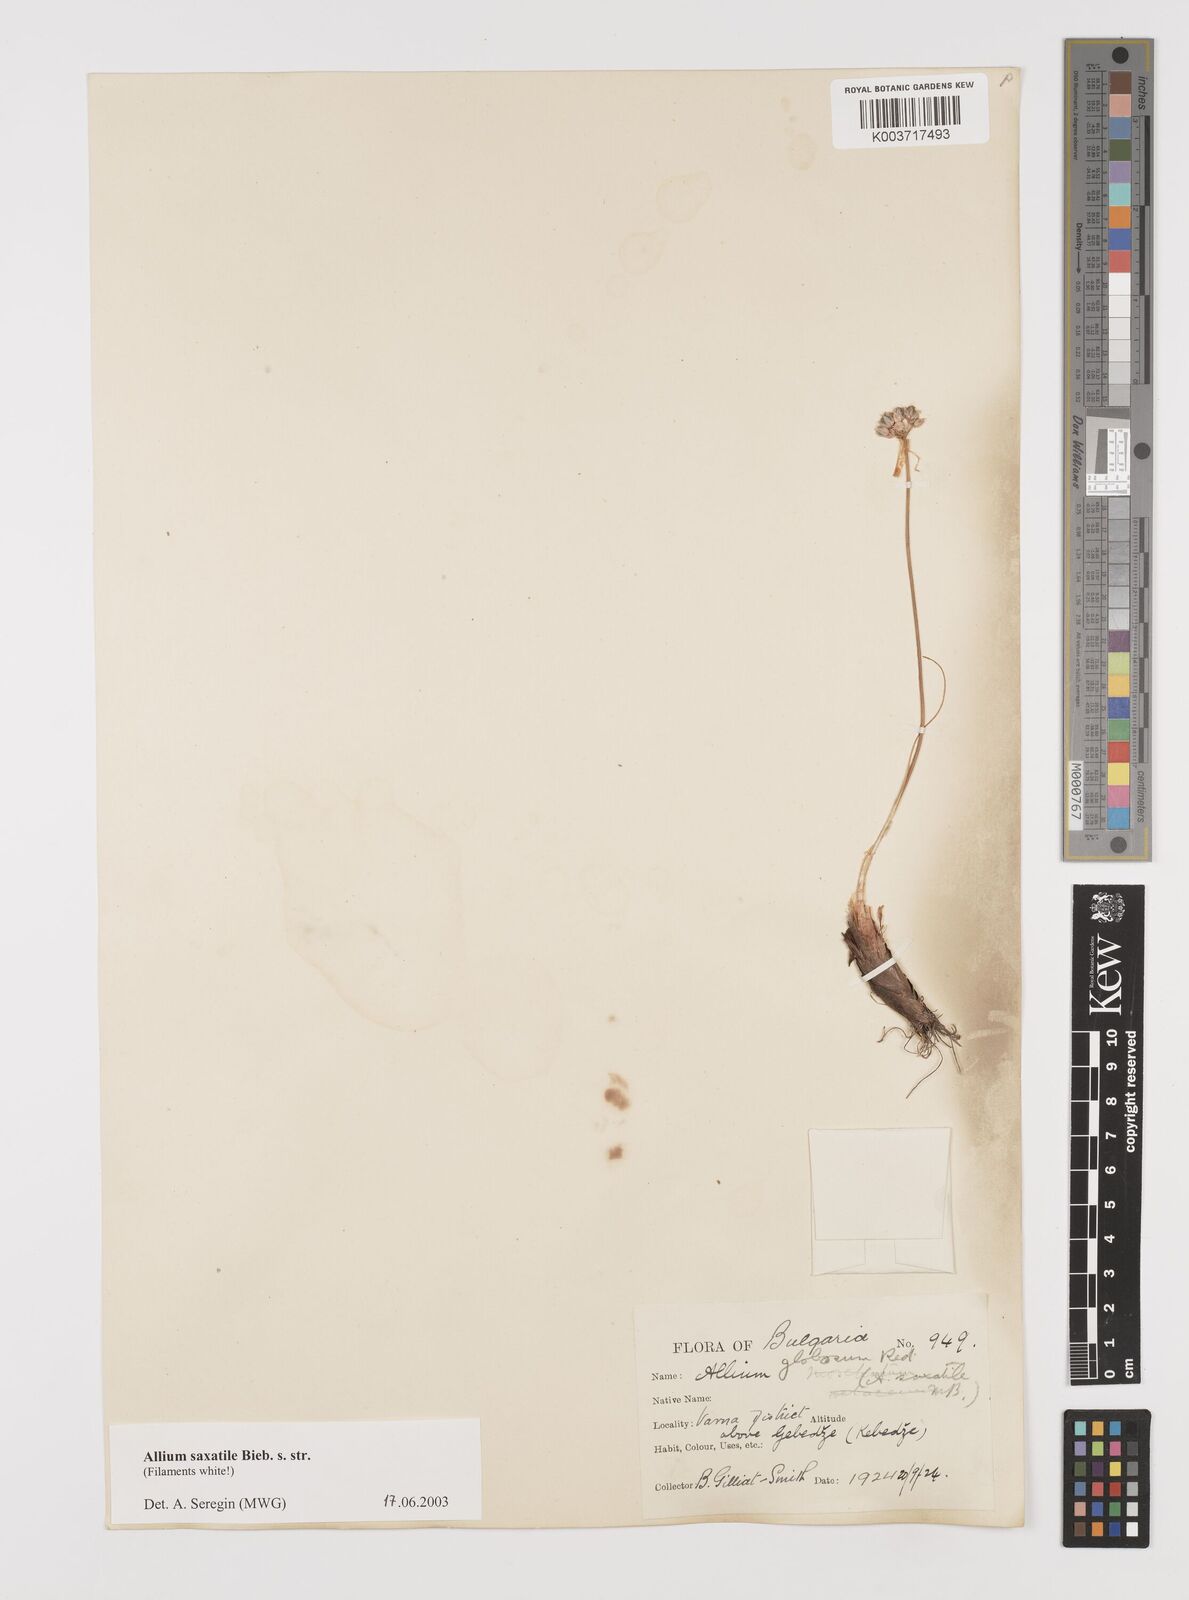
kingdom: Plantae
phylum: Tracheophyta
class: Liliopsida
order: Asparagales
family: Amaryllidaceae
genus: Allium
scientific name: Allium saxatile
